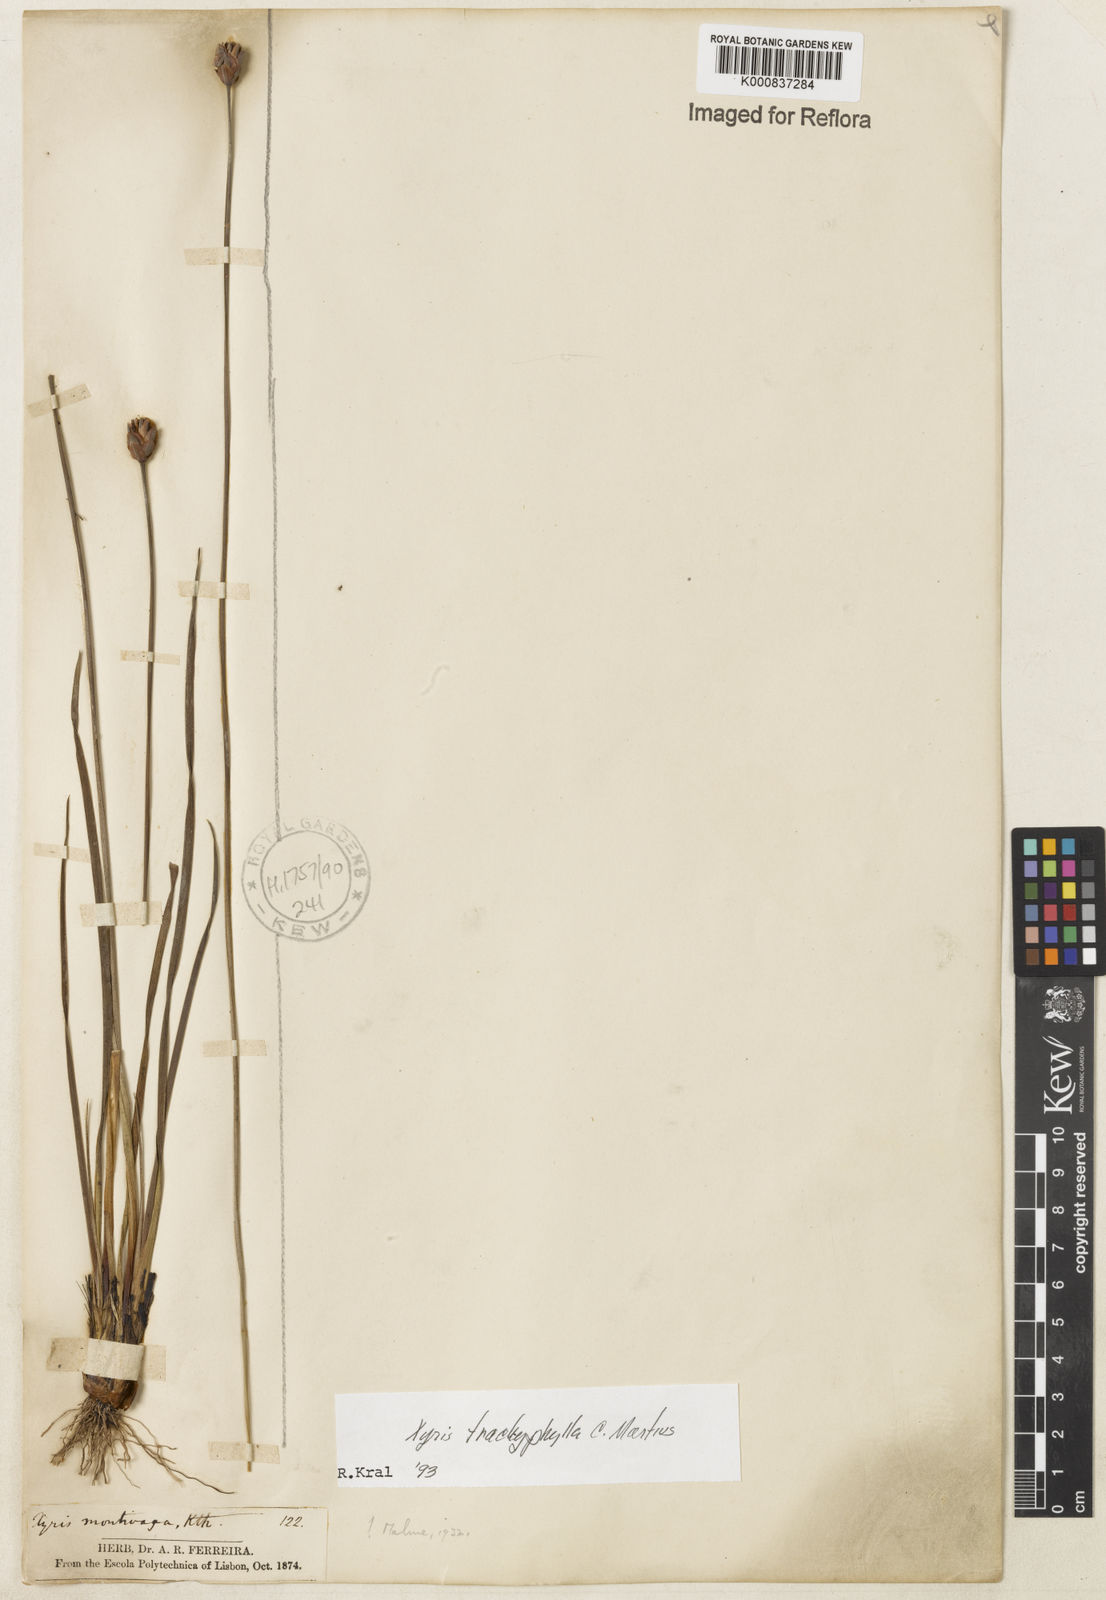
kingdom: Plantae
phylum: Tracheophyta
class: Liliopsida
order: Poales
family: Xyridaceae
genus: Xyris
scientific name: Xyris trachyphylla
